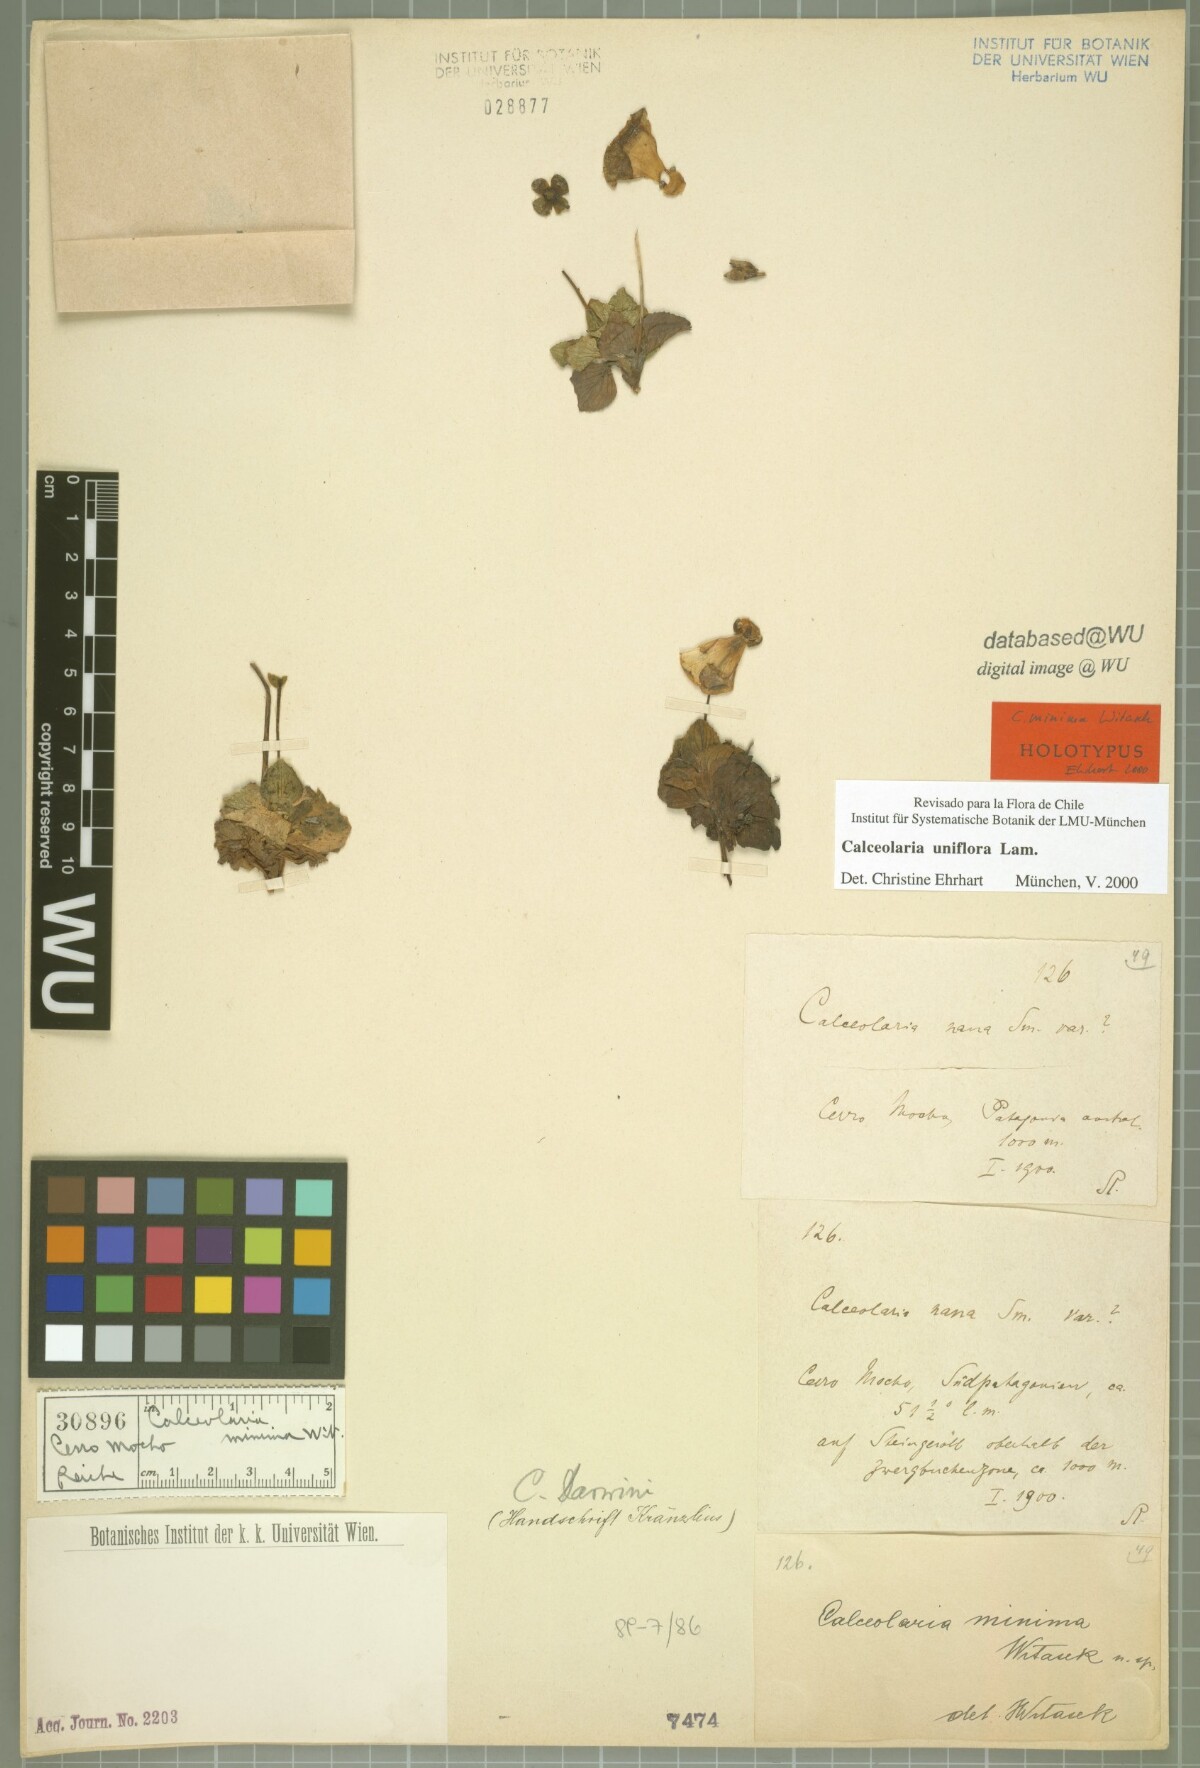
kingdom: Plantae
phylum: Tracheophyta
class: Magnoliopsida
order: Lamiales
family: Calceolariaceae
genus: Calceolaria
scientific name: Calceolaria uniflora
